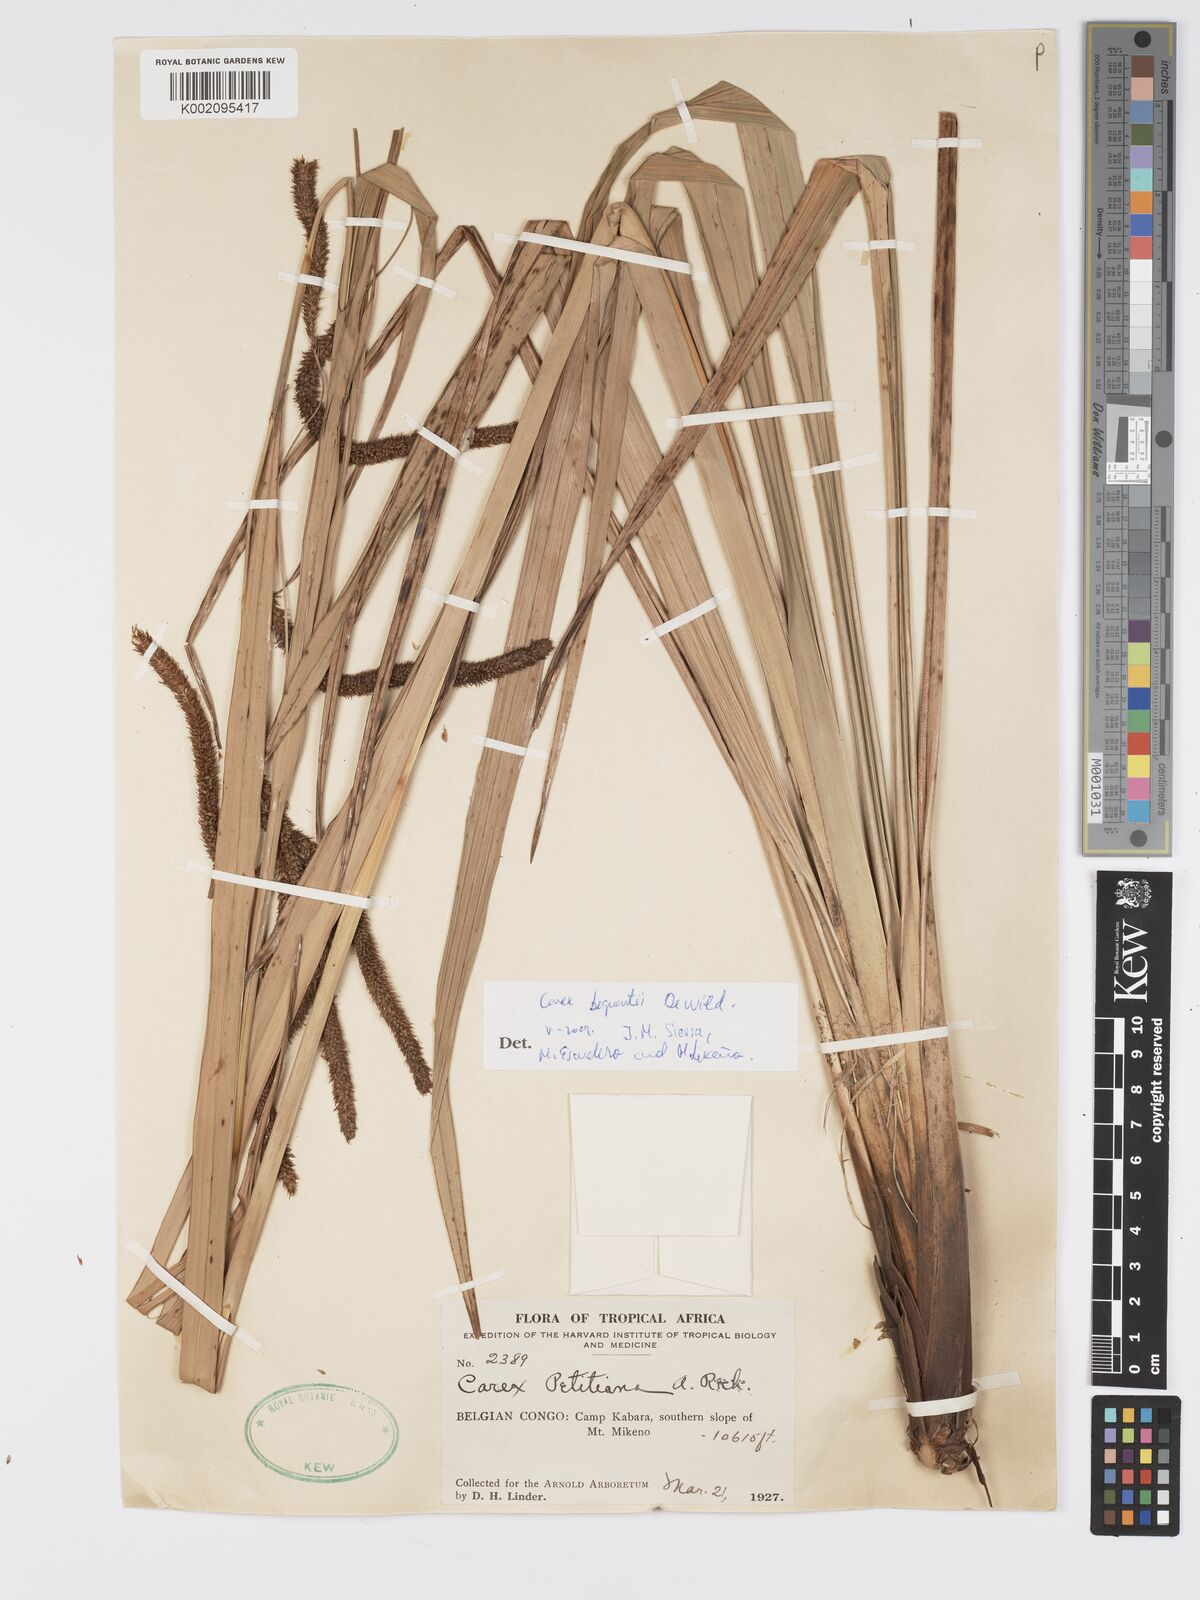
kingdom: Plantae
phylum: Tracheophyta
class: Liliopsida
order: Poales
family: Cyperaceae
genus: Carex
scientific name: Carex bequaertii
